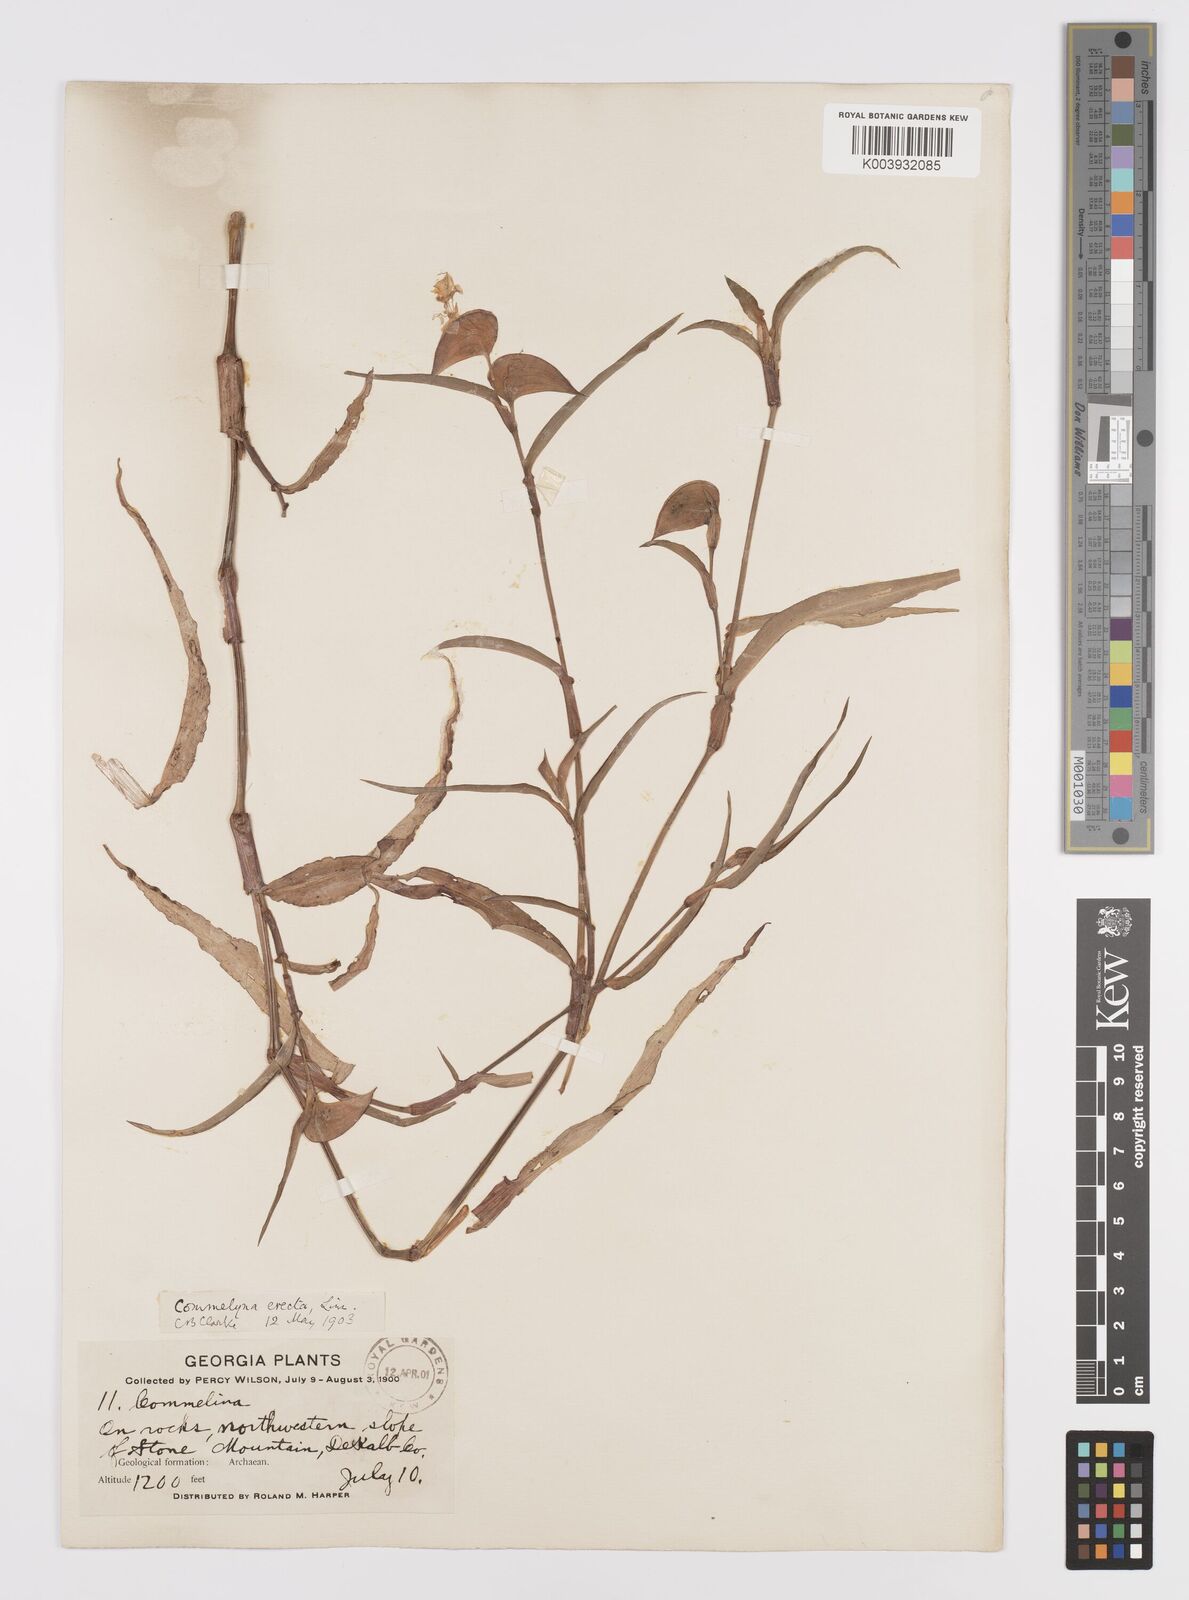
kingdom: Plantae
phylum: Tracheophyta
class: Liliopsida
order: Commelinales
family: Commelinaceae
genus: Commelina
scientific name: Commelina erecta
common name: Blousel blommetjie
